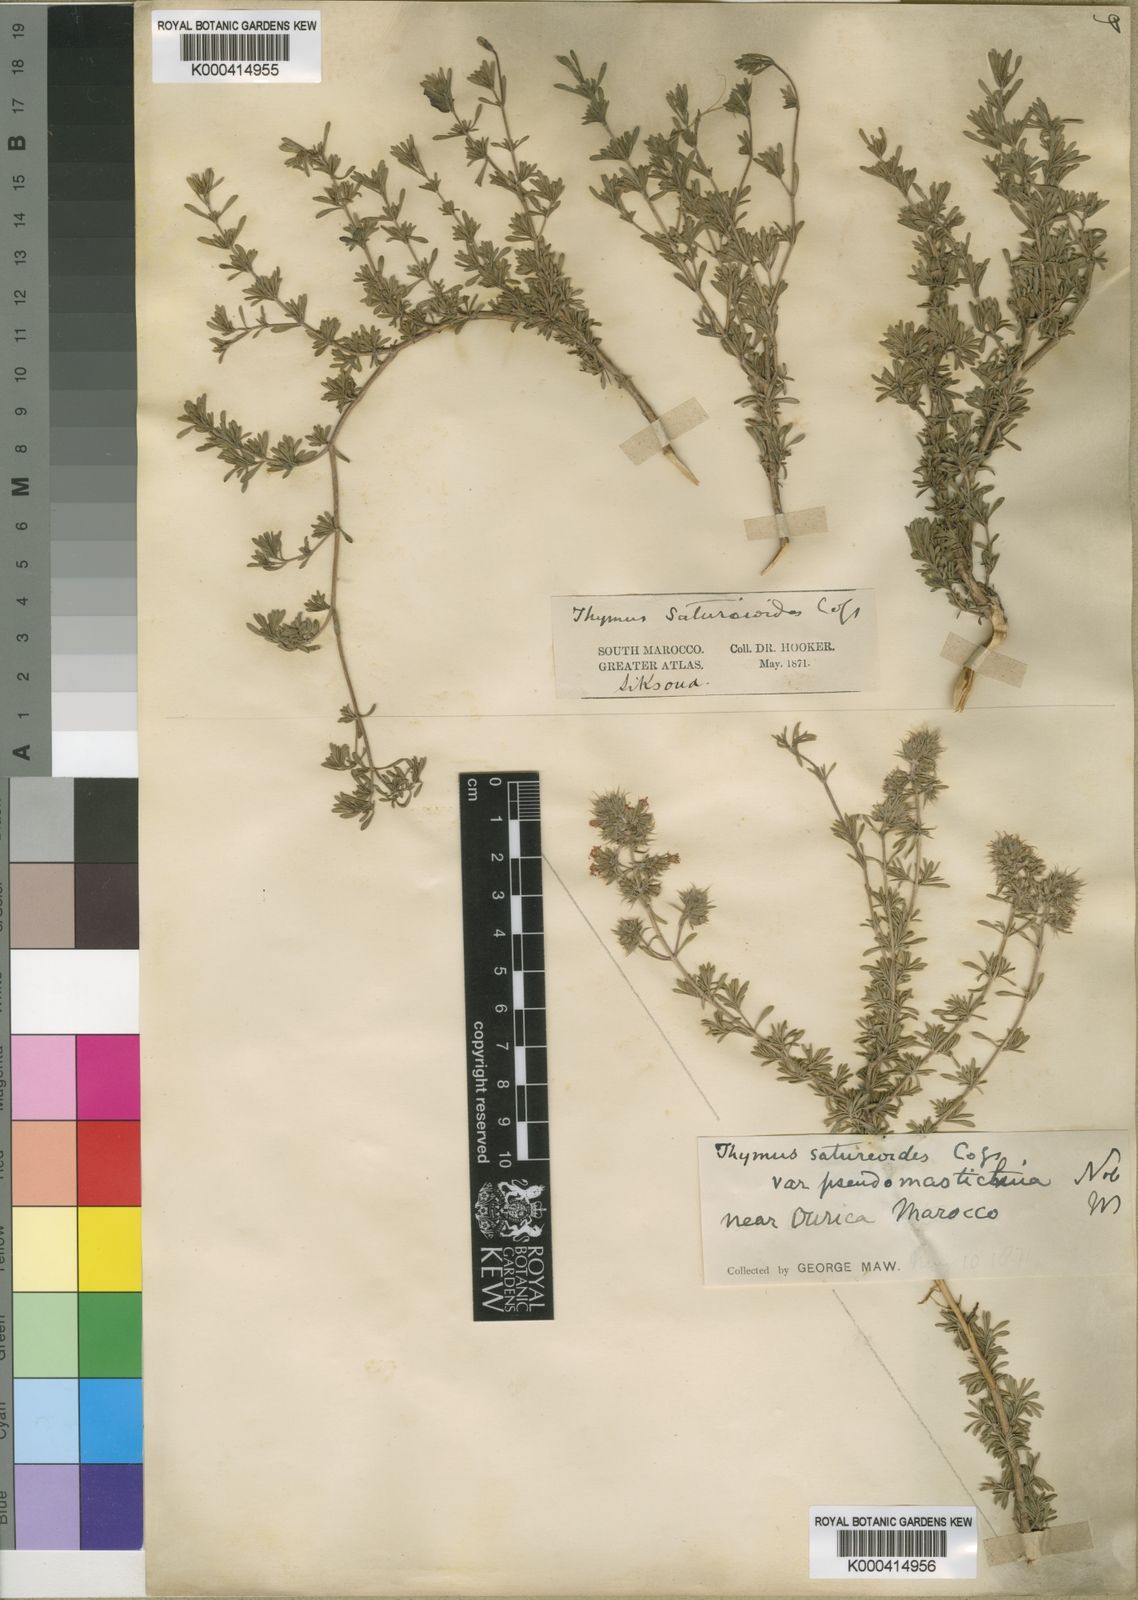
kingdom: Plantae
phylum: Tracheophyta
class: Magnoliopsida
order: Lamiales
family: Lamiaceae
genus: Thymus
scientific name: Thymus
